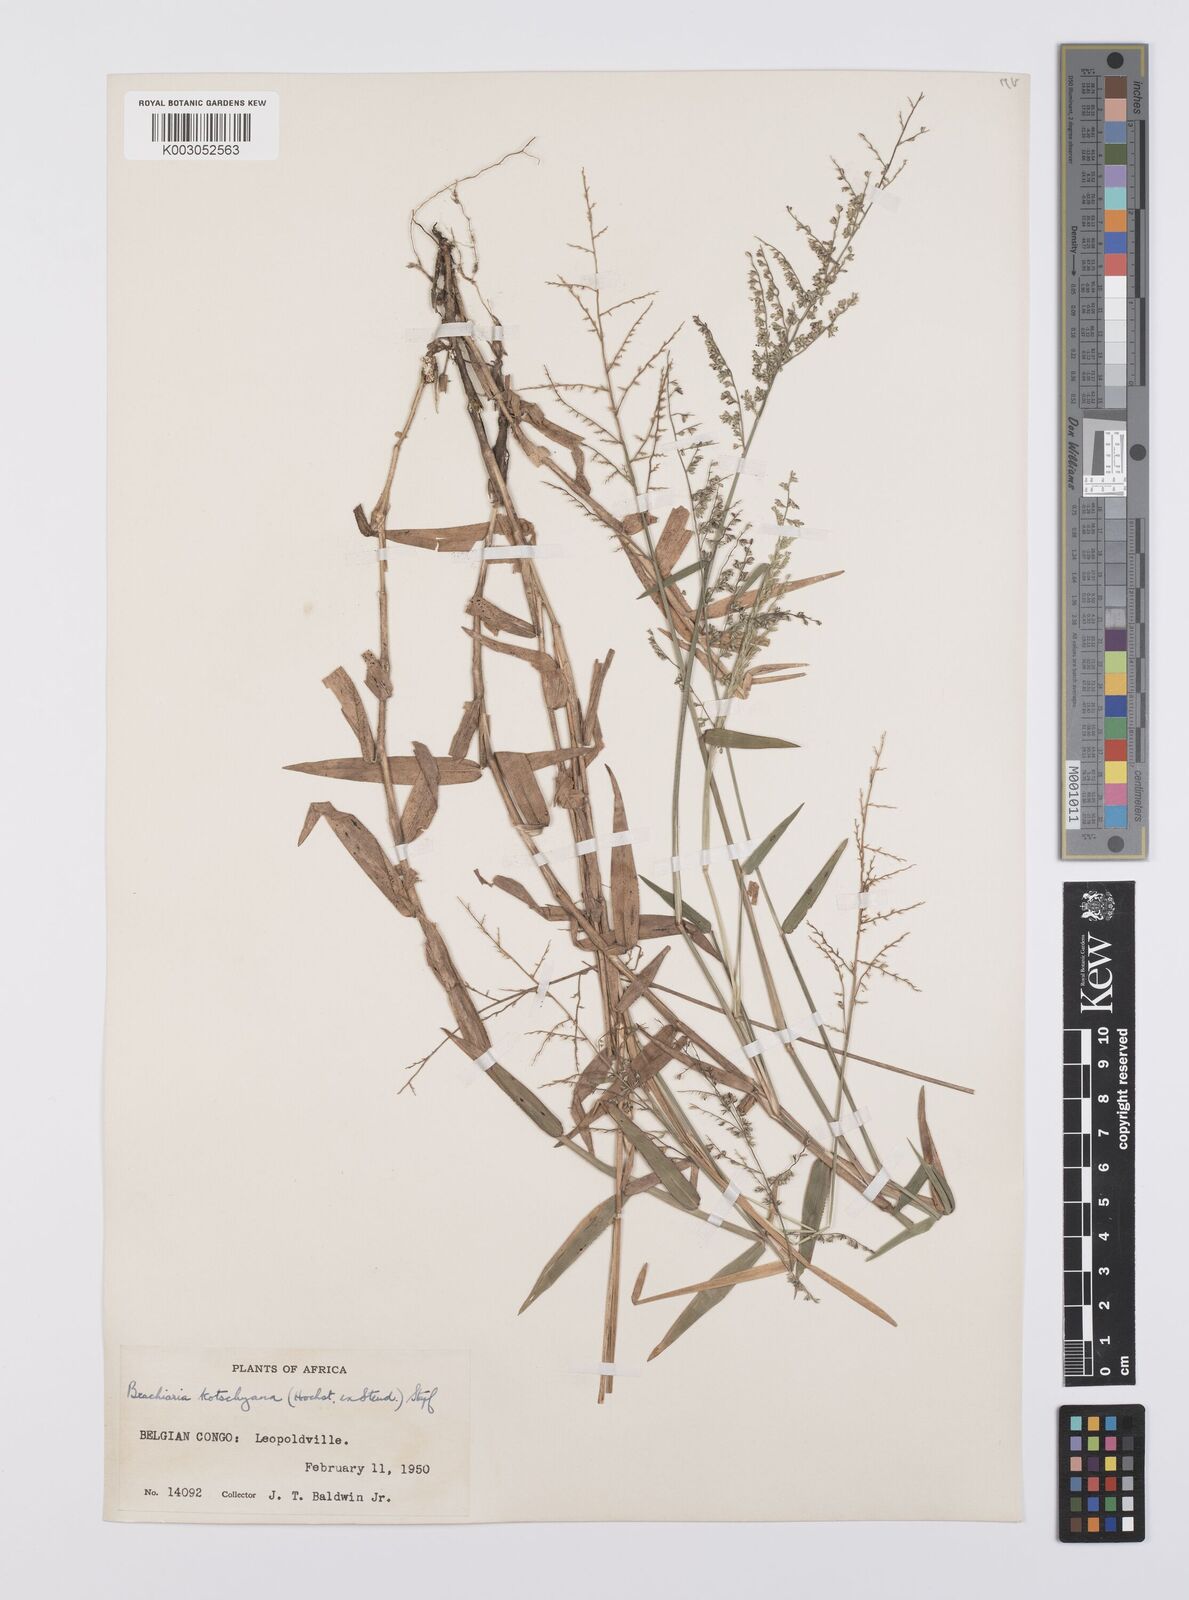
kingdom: Plantae
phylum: Tracheophyta
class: Liliopsida
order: Poales
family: Poaceae
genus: Urochloa
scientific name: Urochloa comata
